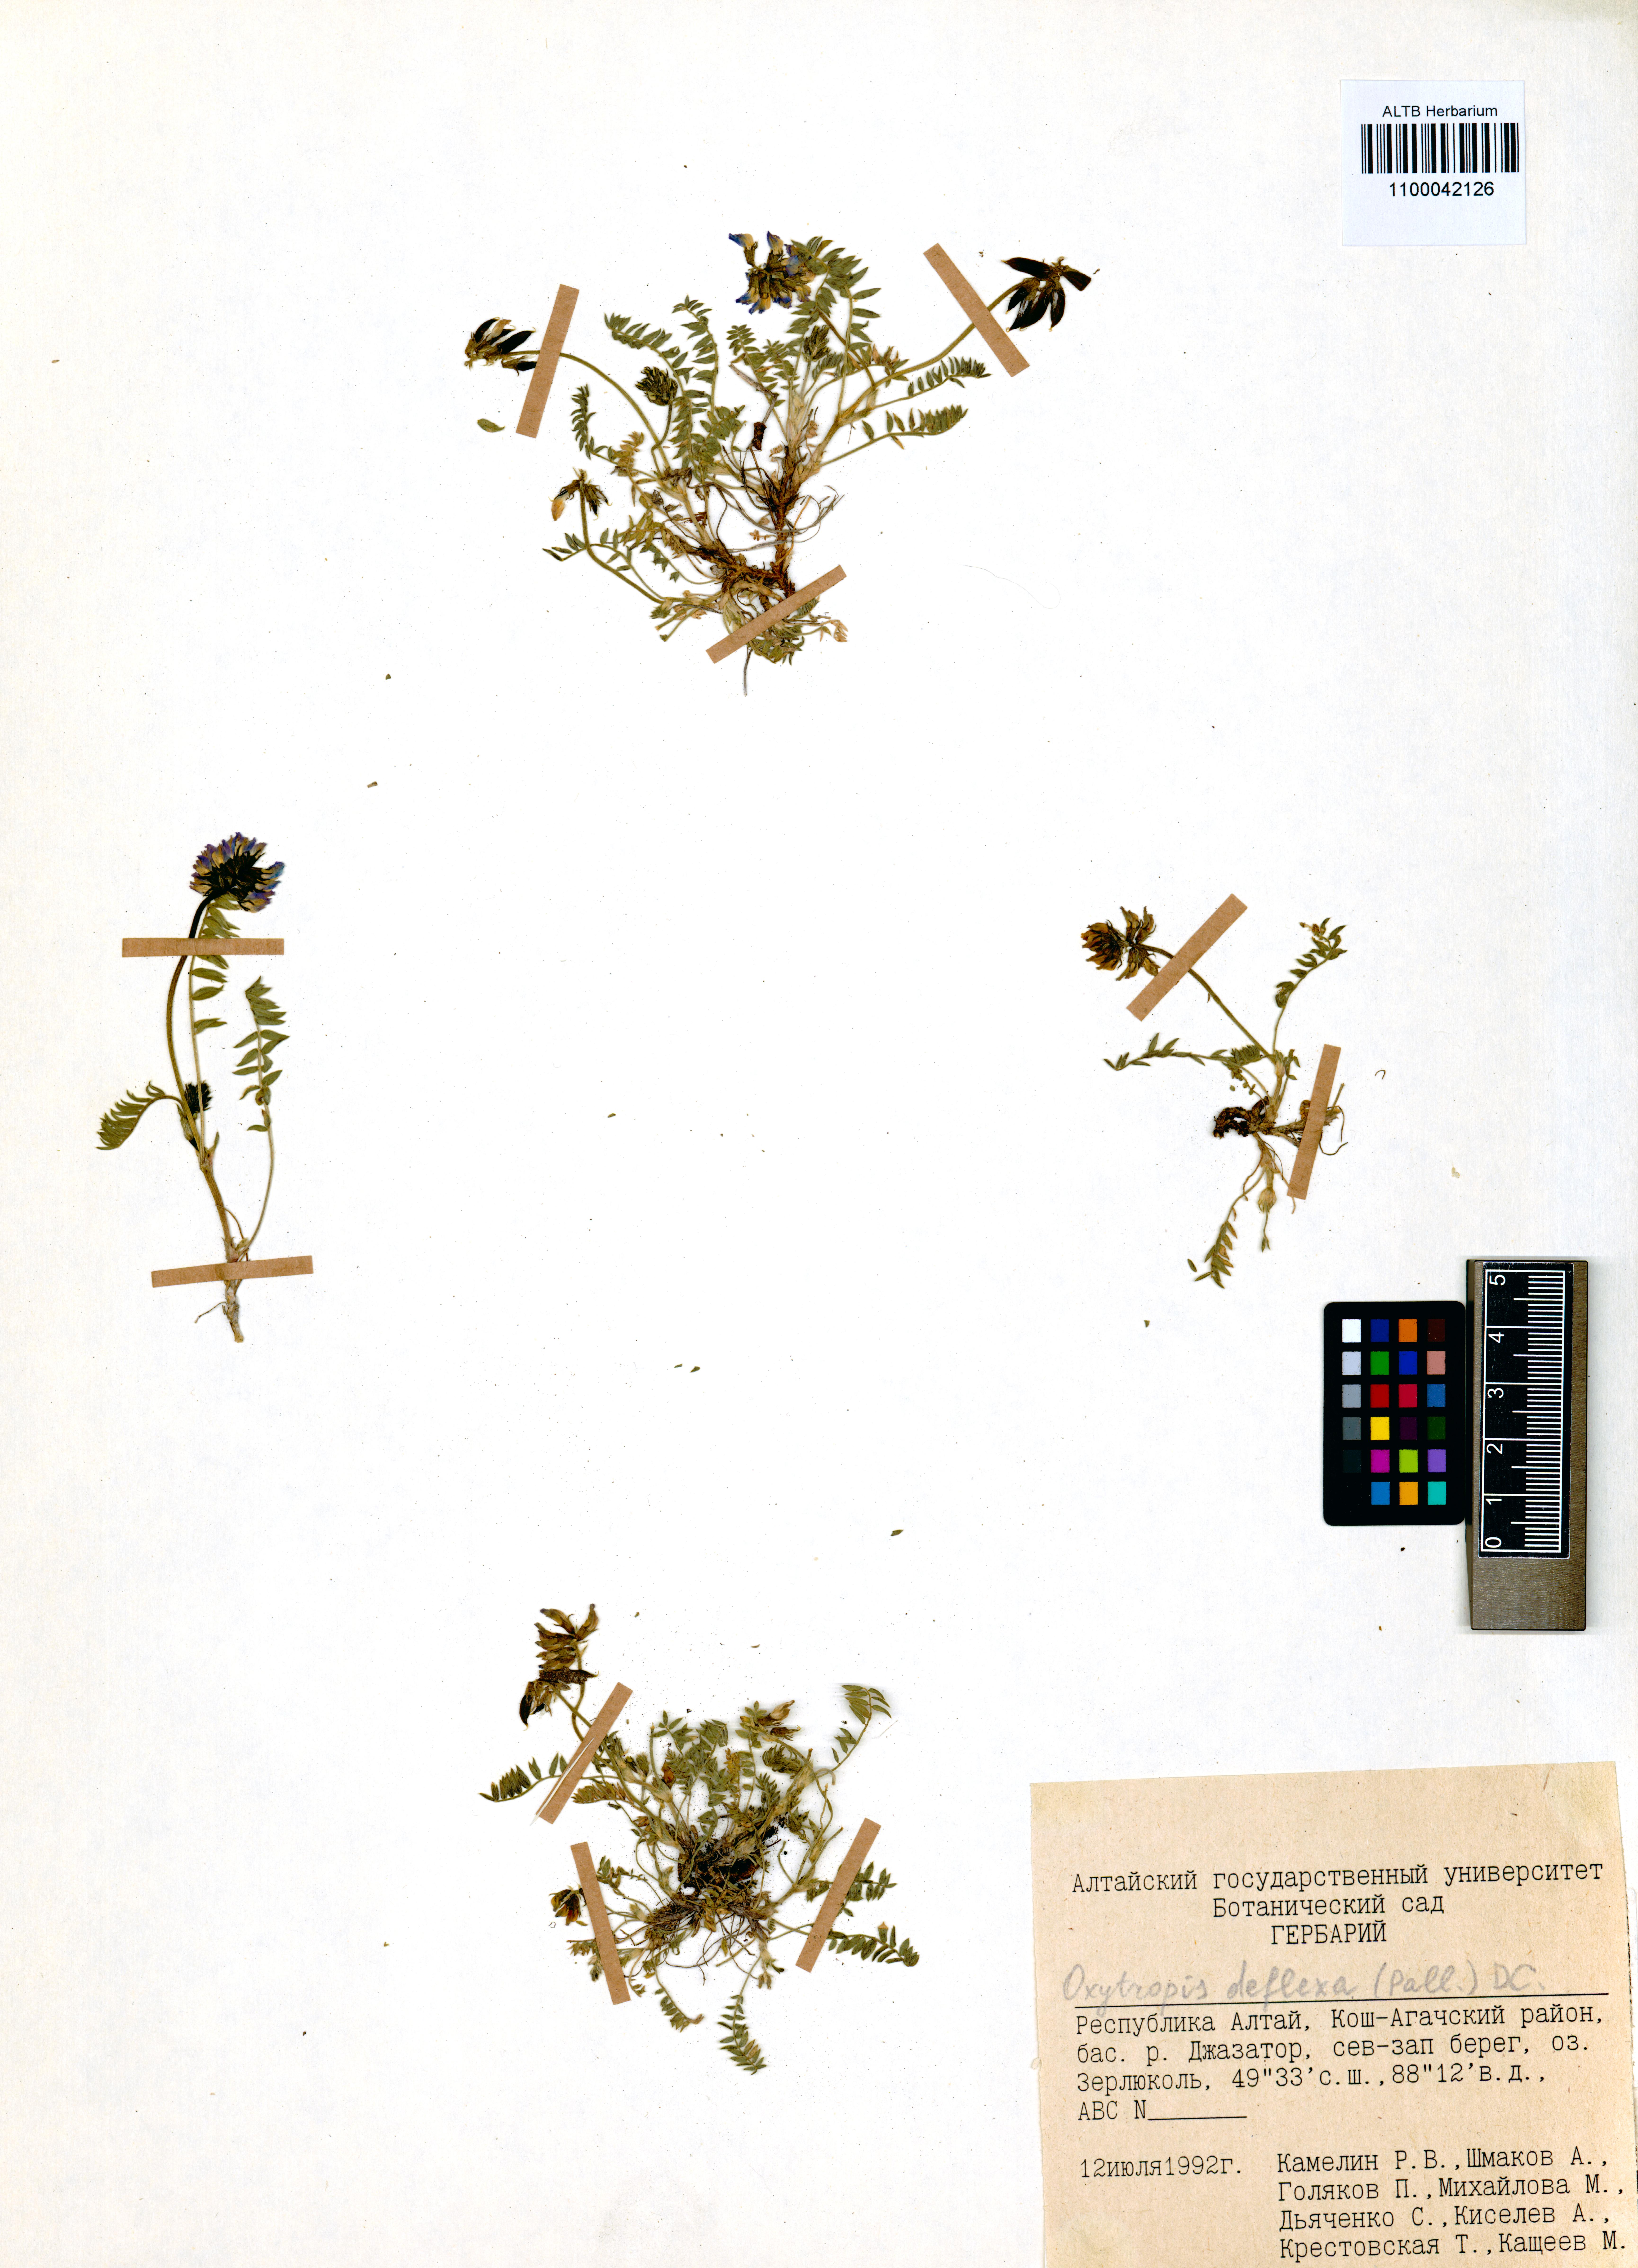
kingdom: Plantae
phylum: Tracheophyta
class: Magnoliopsida
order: Fabales
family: Fabaceae
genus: Oxytropis
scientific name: Oxytropis deflexa
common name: Stemmed oxytrope
